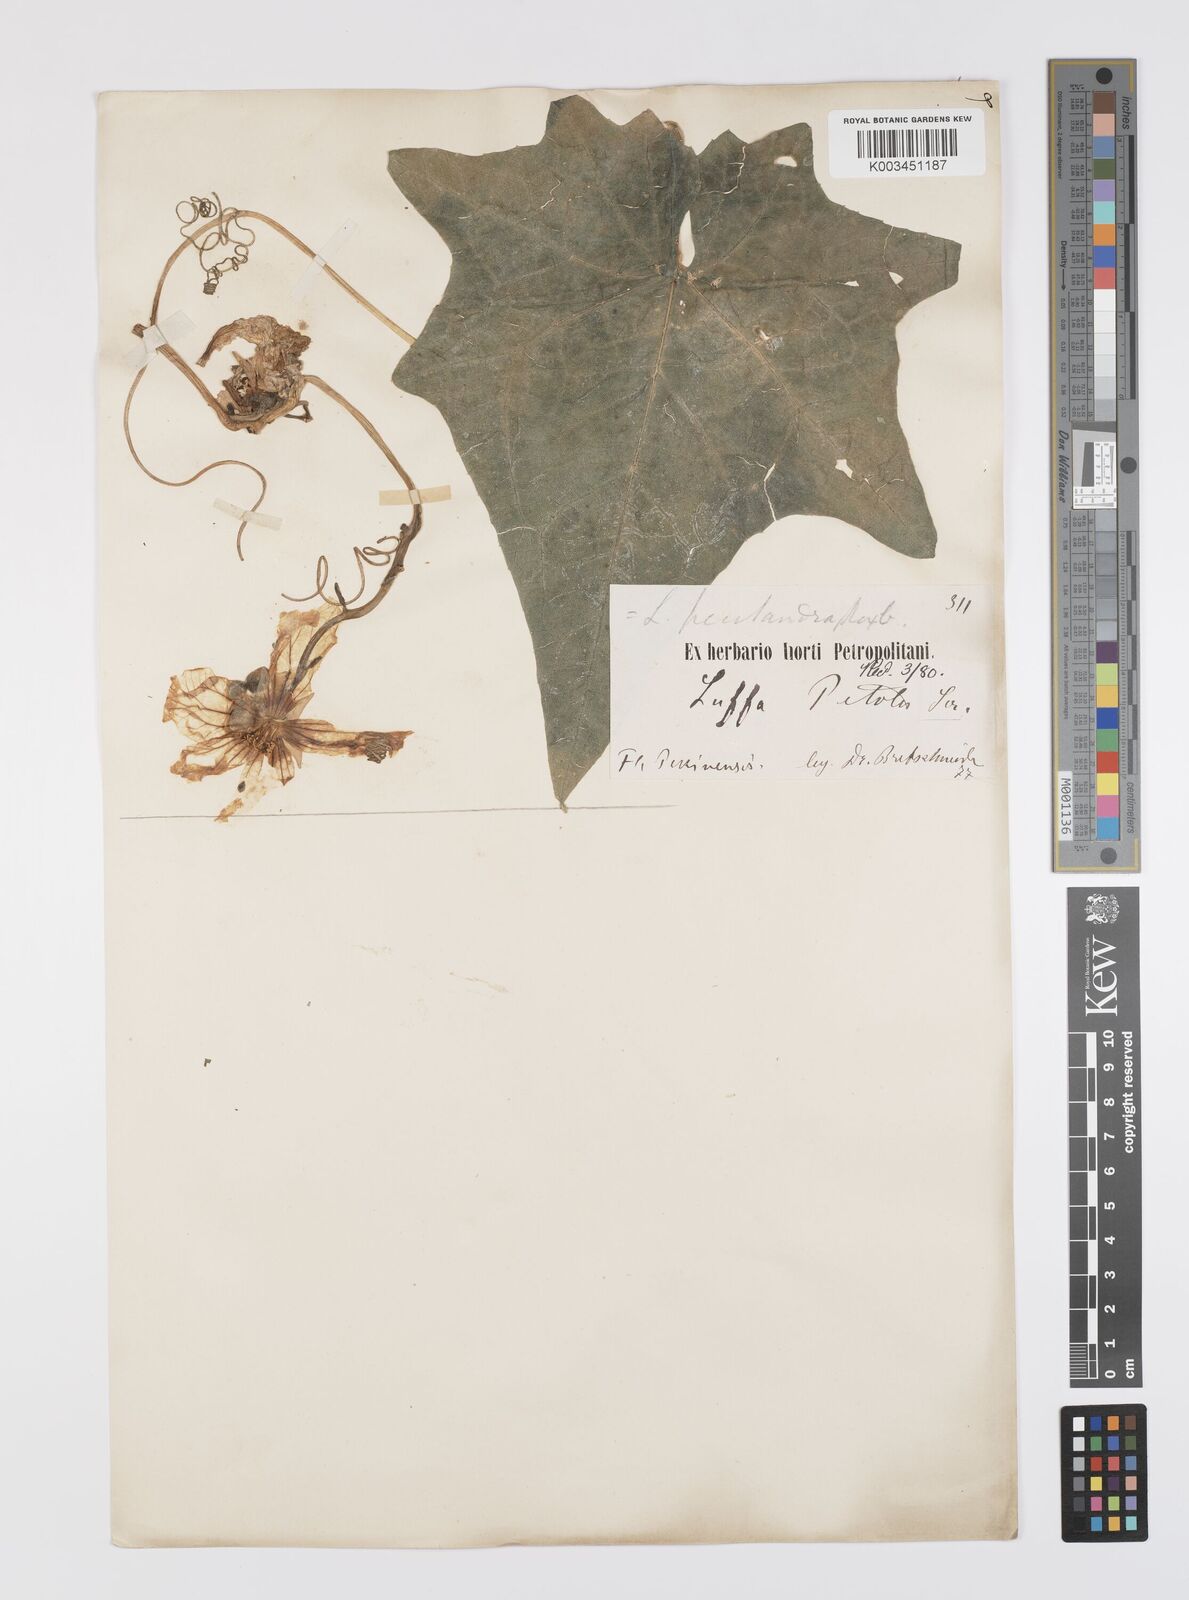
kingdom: Plantae
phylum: Tracheophyta
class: Magnoliopsida
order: Cucurbitales
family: Cucurbitaceae
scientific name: Cucurbitaceae
